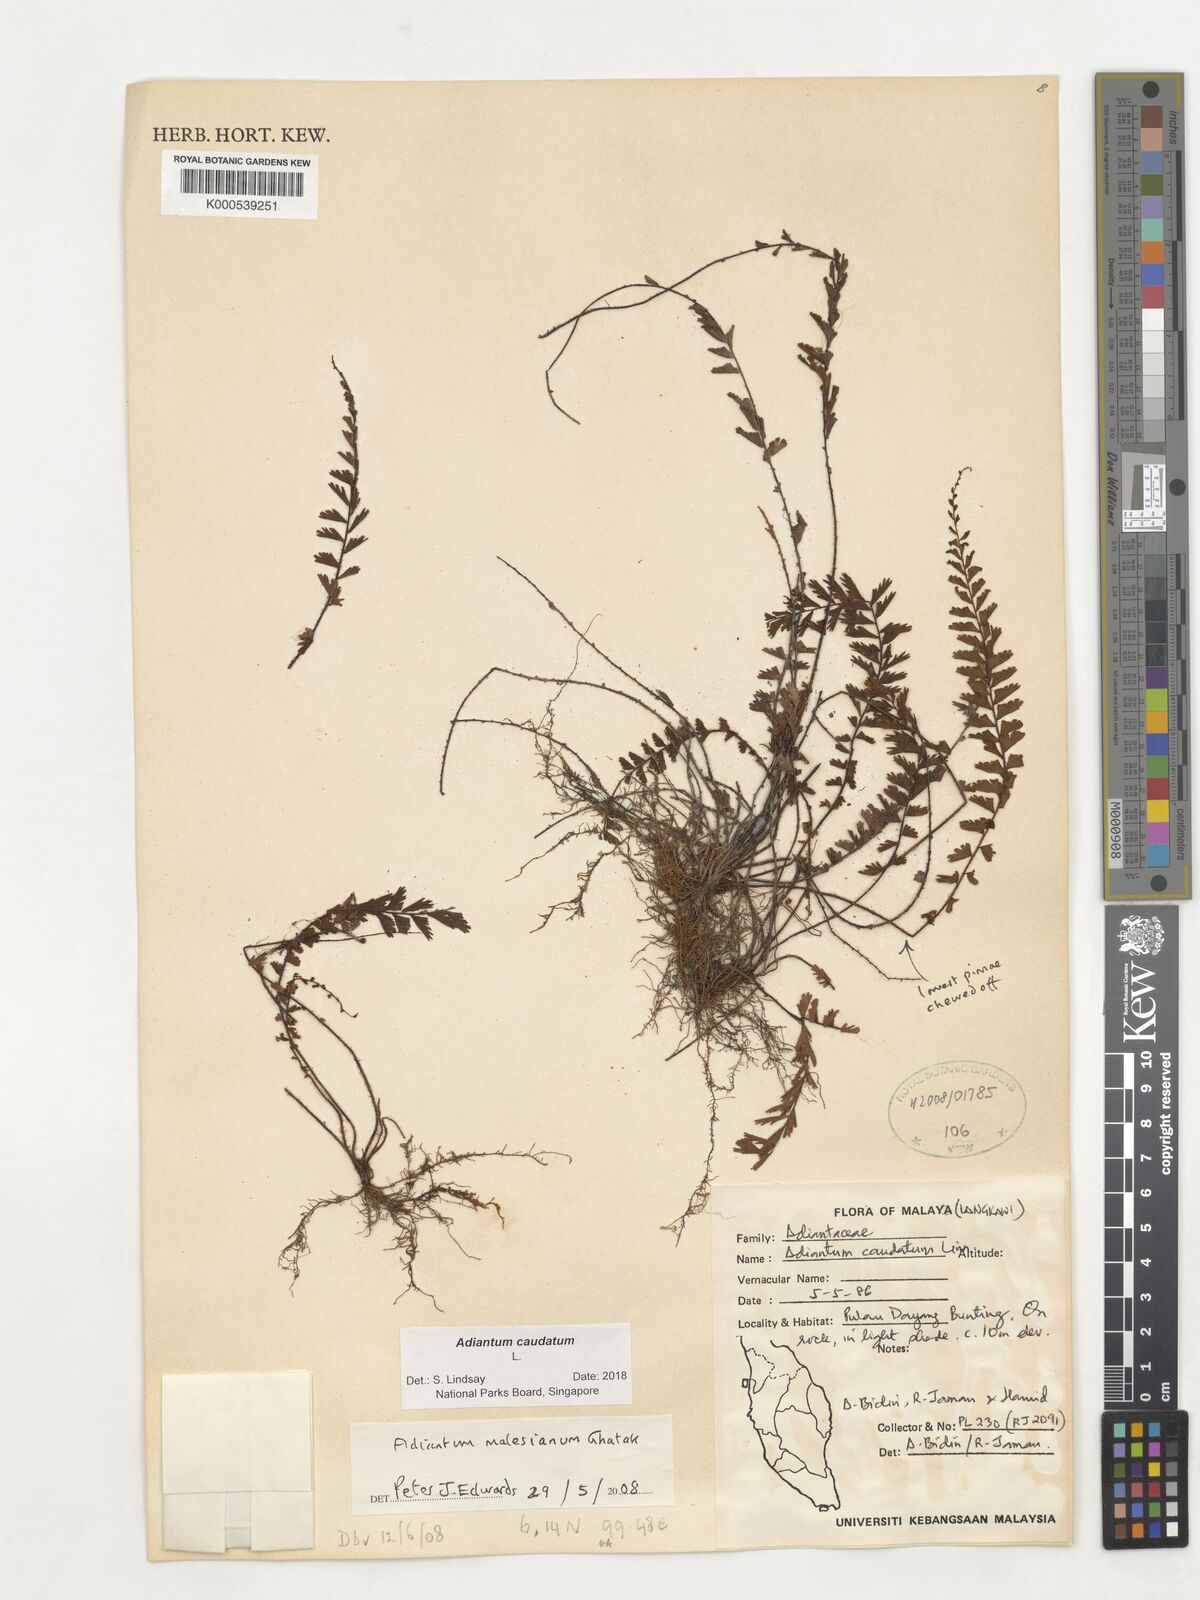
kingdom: Plantae
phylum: Tracheophyta
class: Polypodiopsida
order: Polypodiales
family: Pteridaceae
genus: Adiantum
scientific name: Adiantum caudatum
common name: Tailed maidenhair
